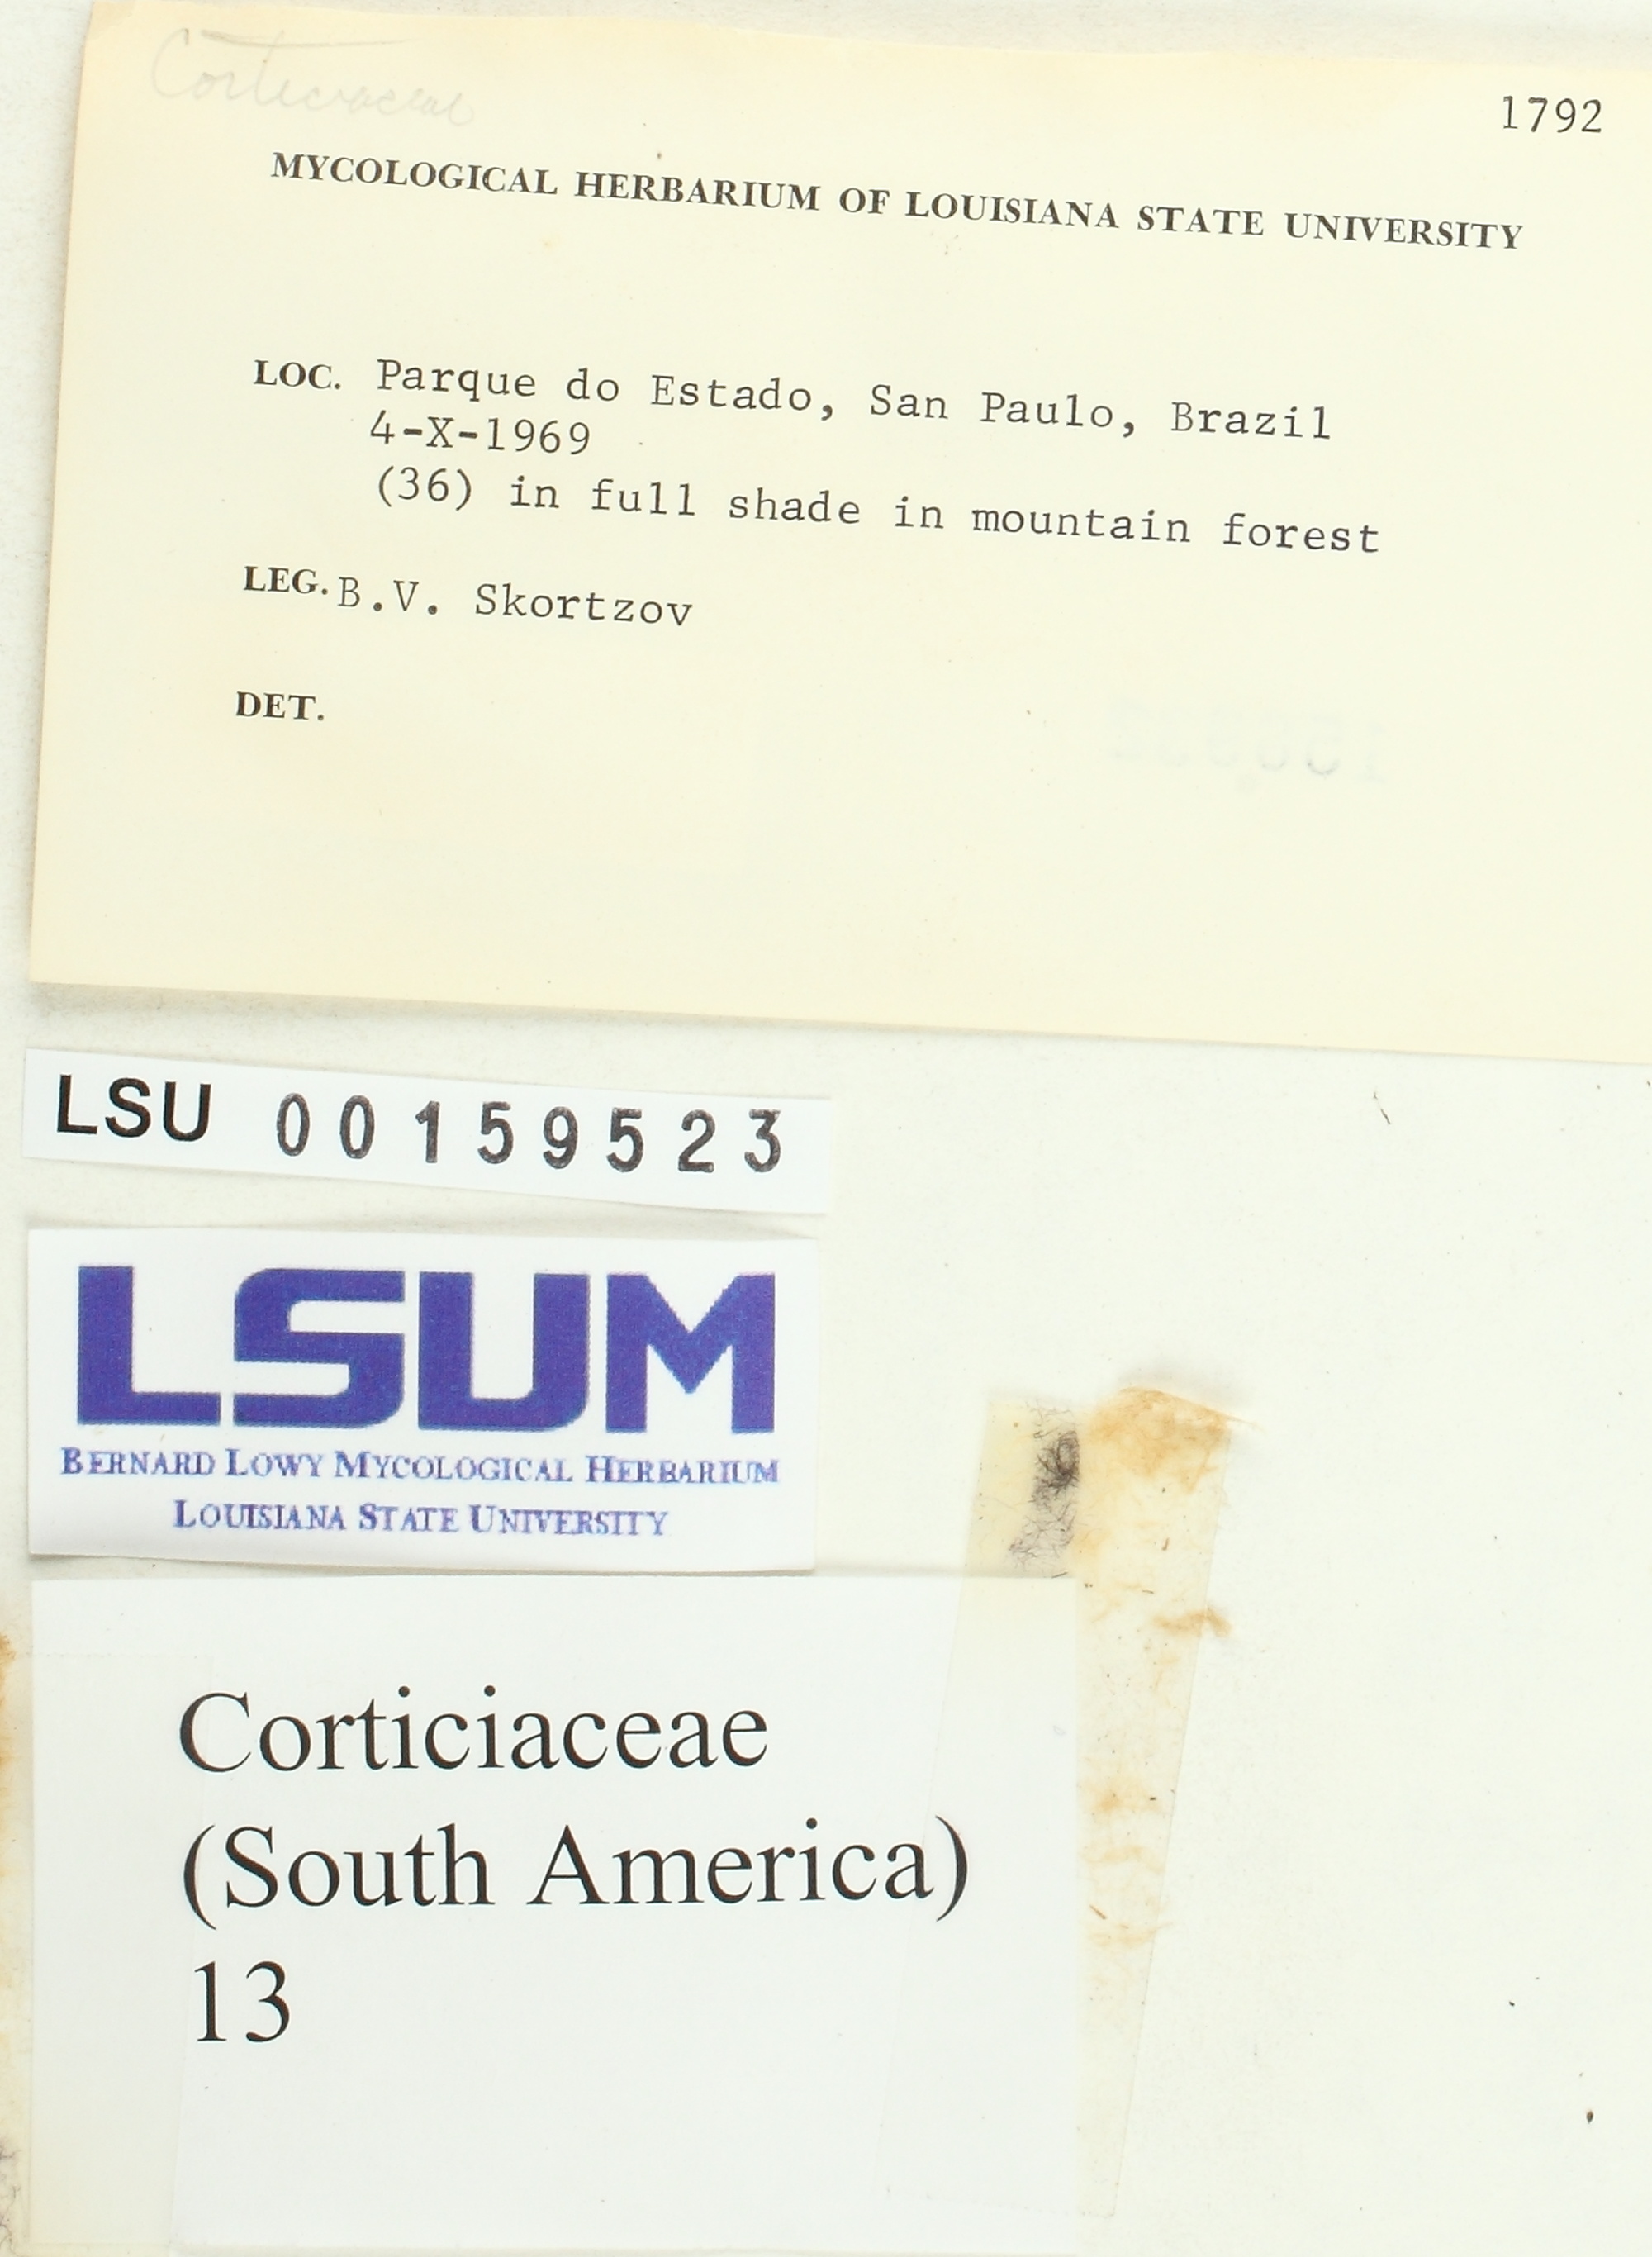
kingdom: Fungi
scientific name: Fungi
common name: Fungi
